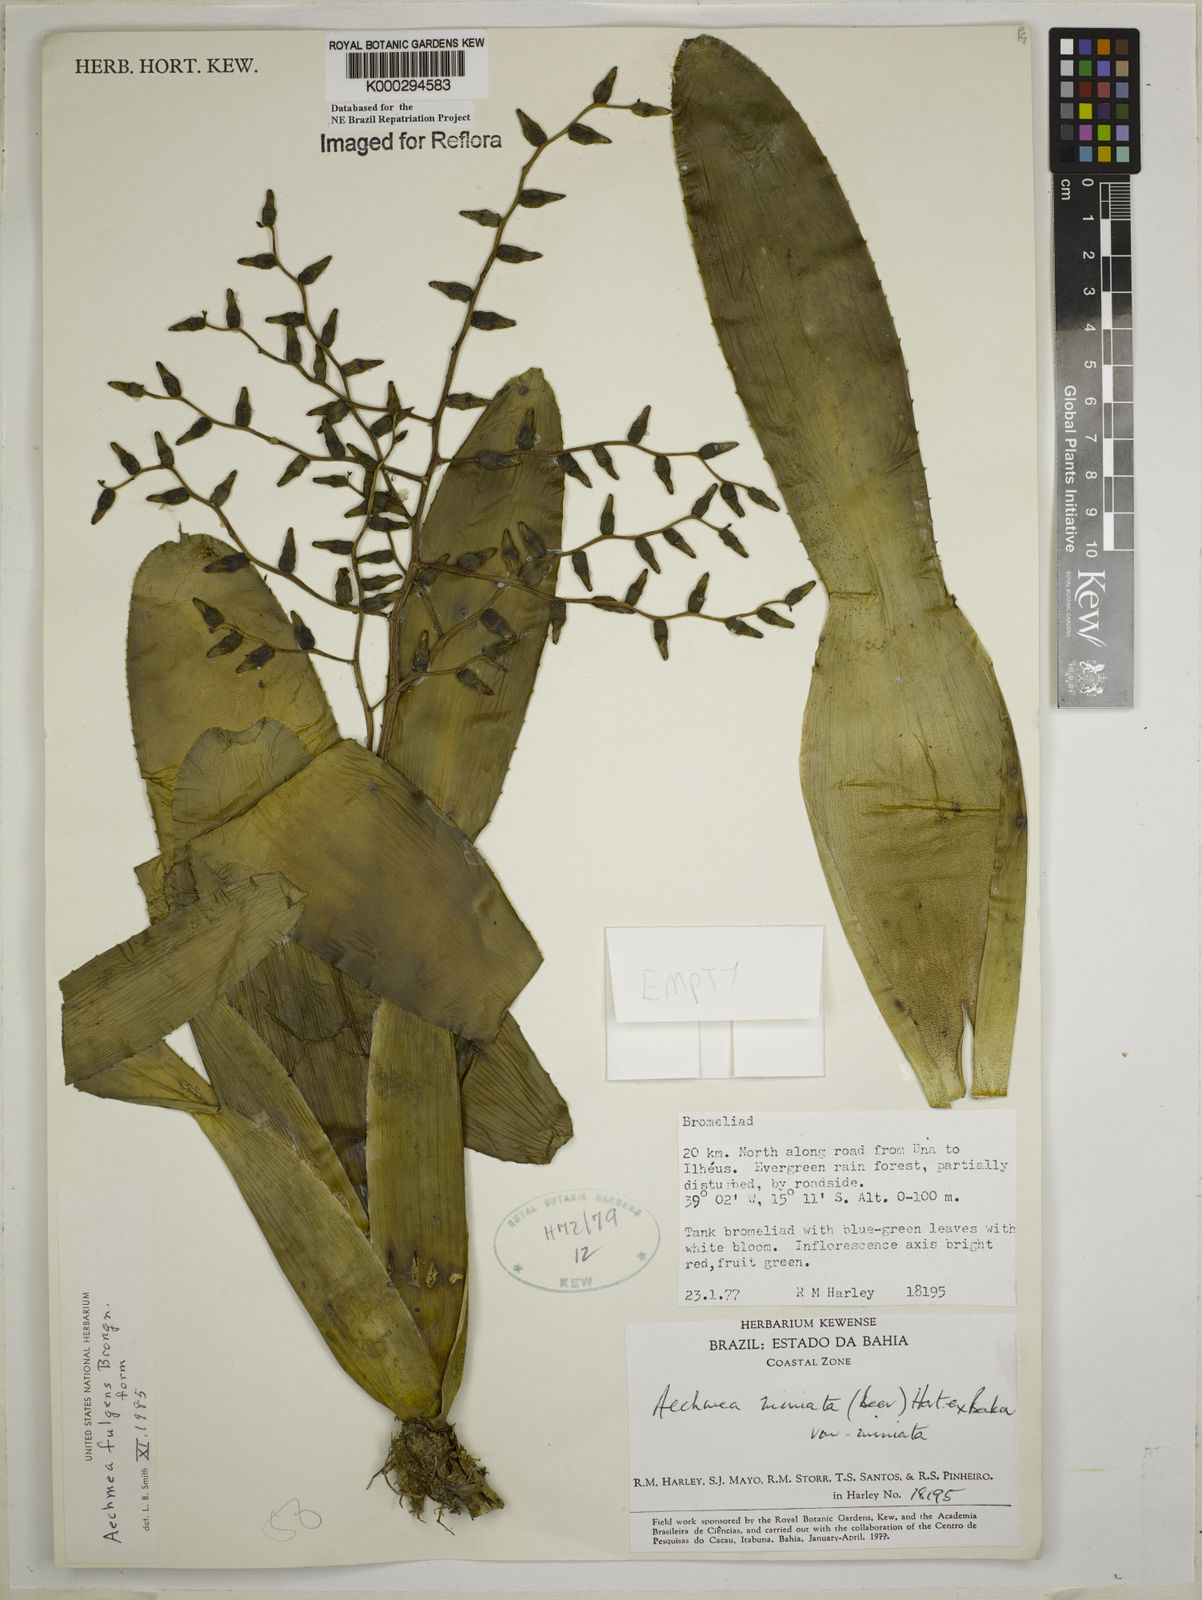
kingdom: Plantae
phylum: Tracheophyta
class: Liliopsida
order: Poales
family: Bromeliaceae
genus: Aechmea
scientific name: Aechmea miniata
